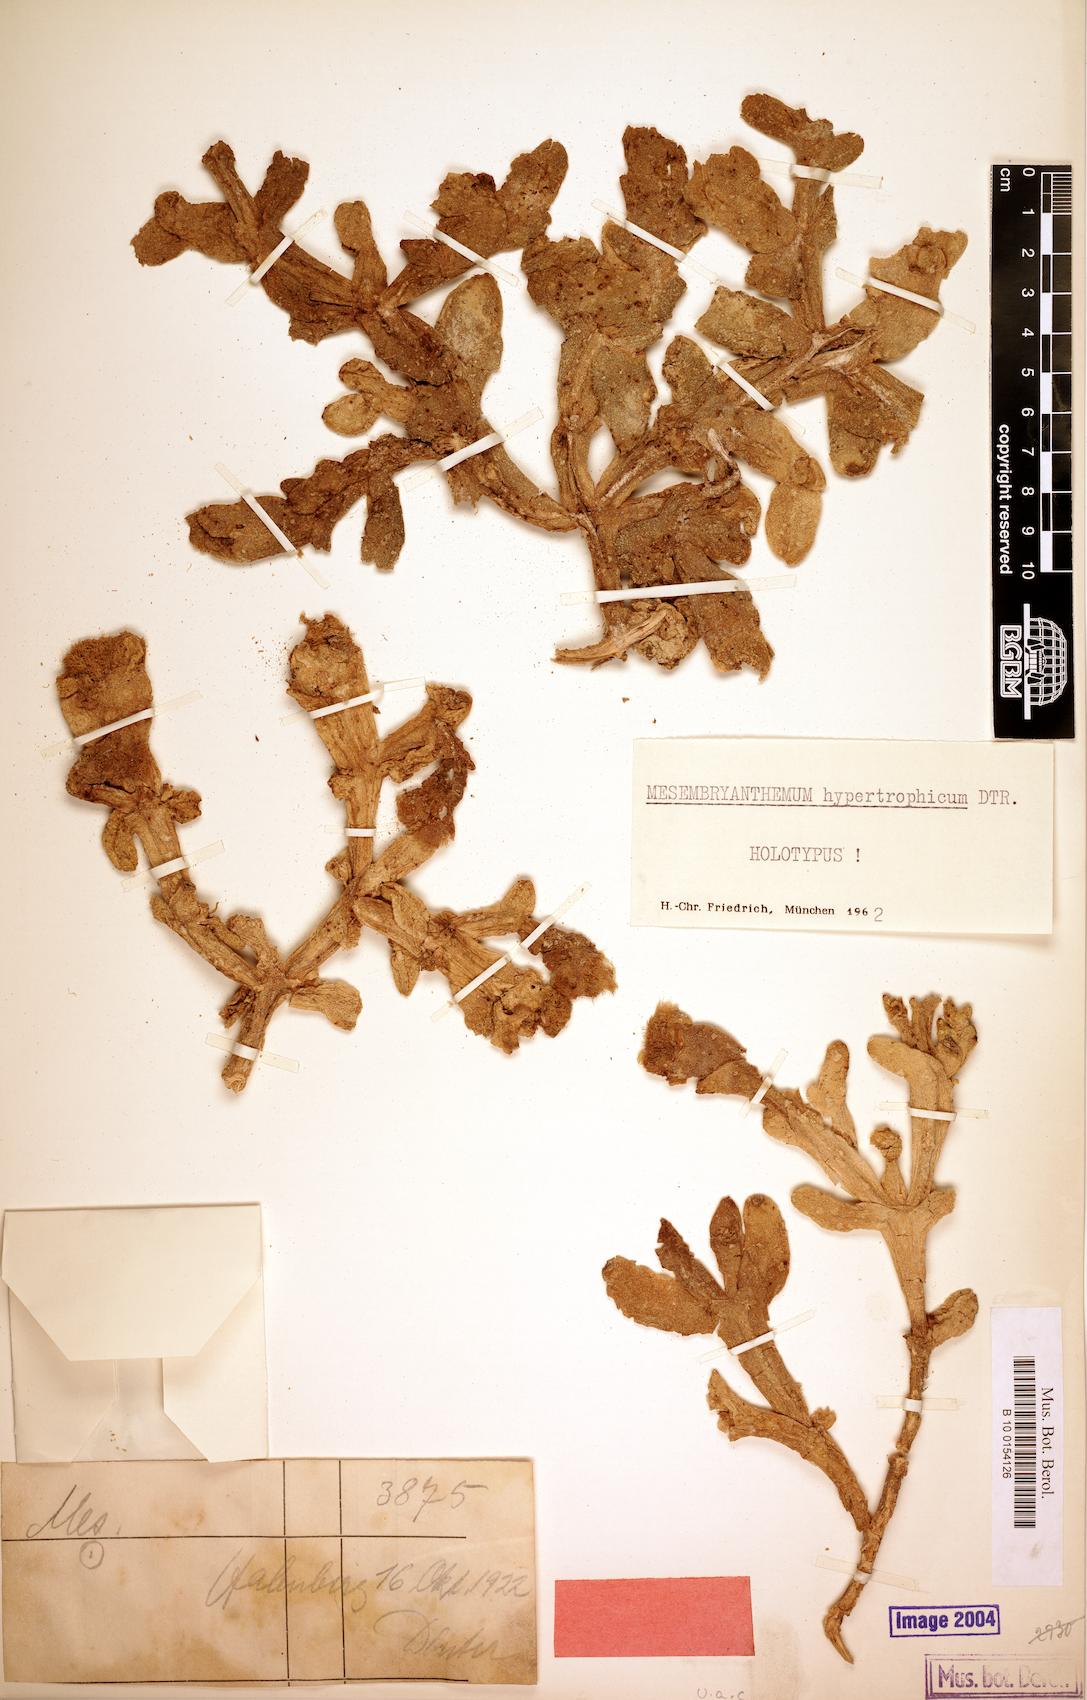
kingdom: Plantae
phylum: Tracheophyta
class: Magnoliopsida
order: Caryophyllales
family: Aizoaceae
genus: Mesembryanthemum
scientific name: Mesembryanthemum hypertrophicum
